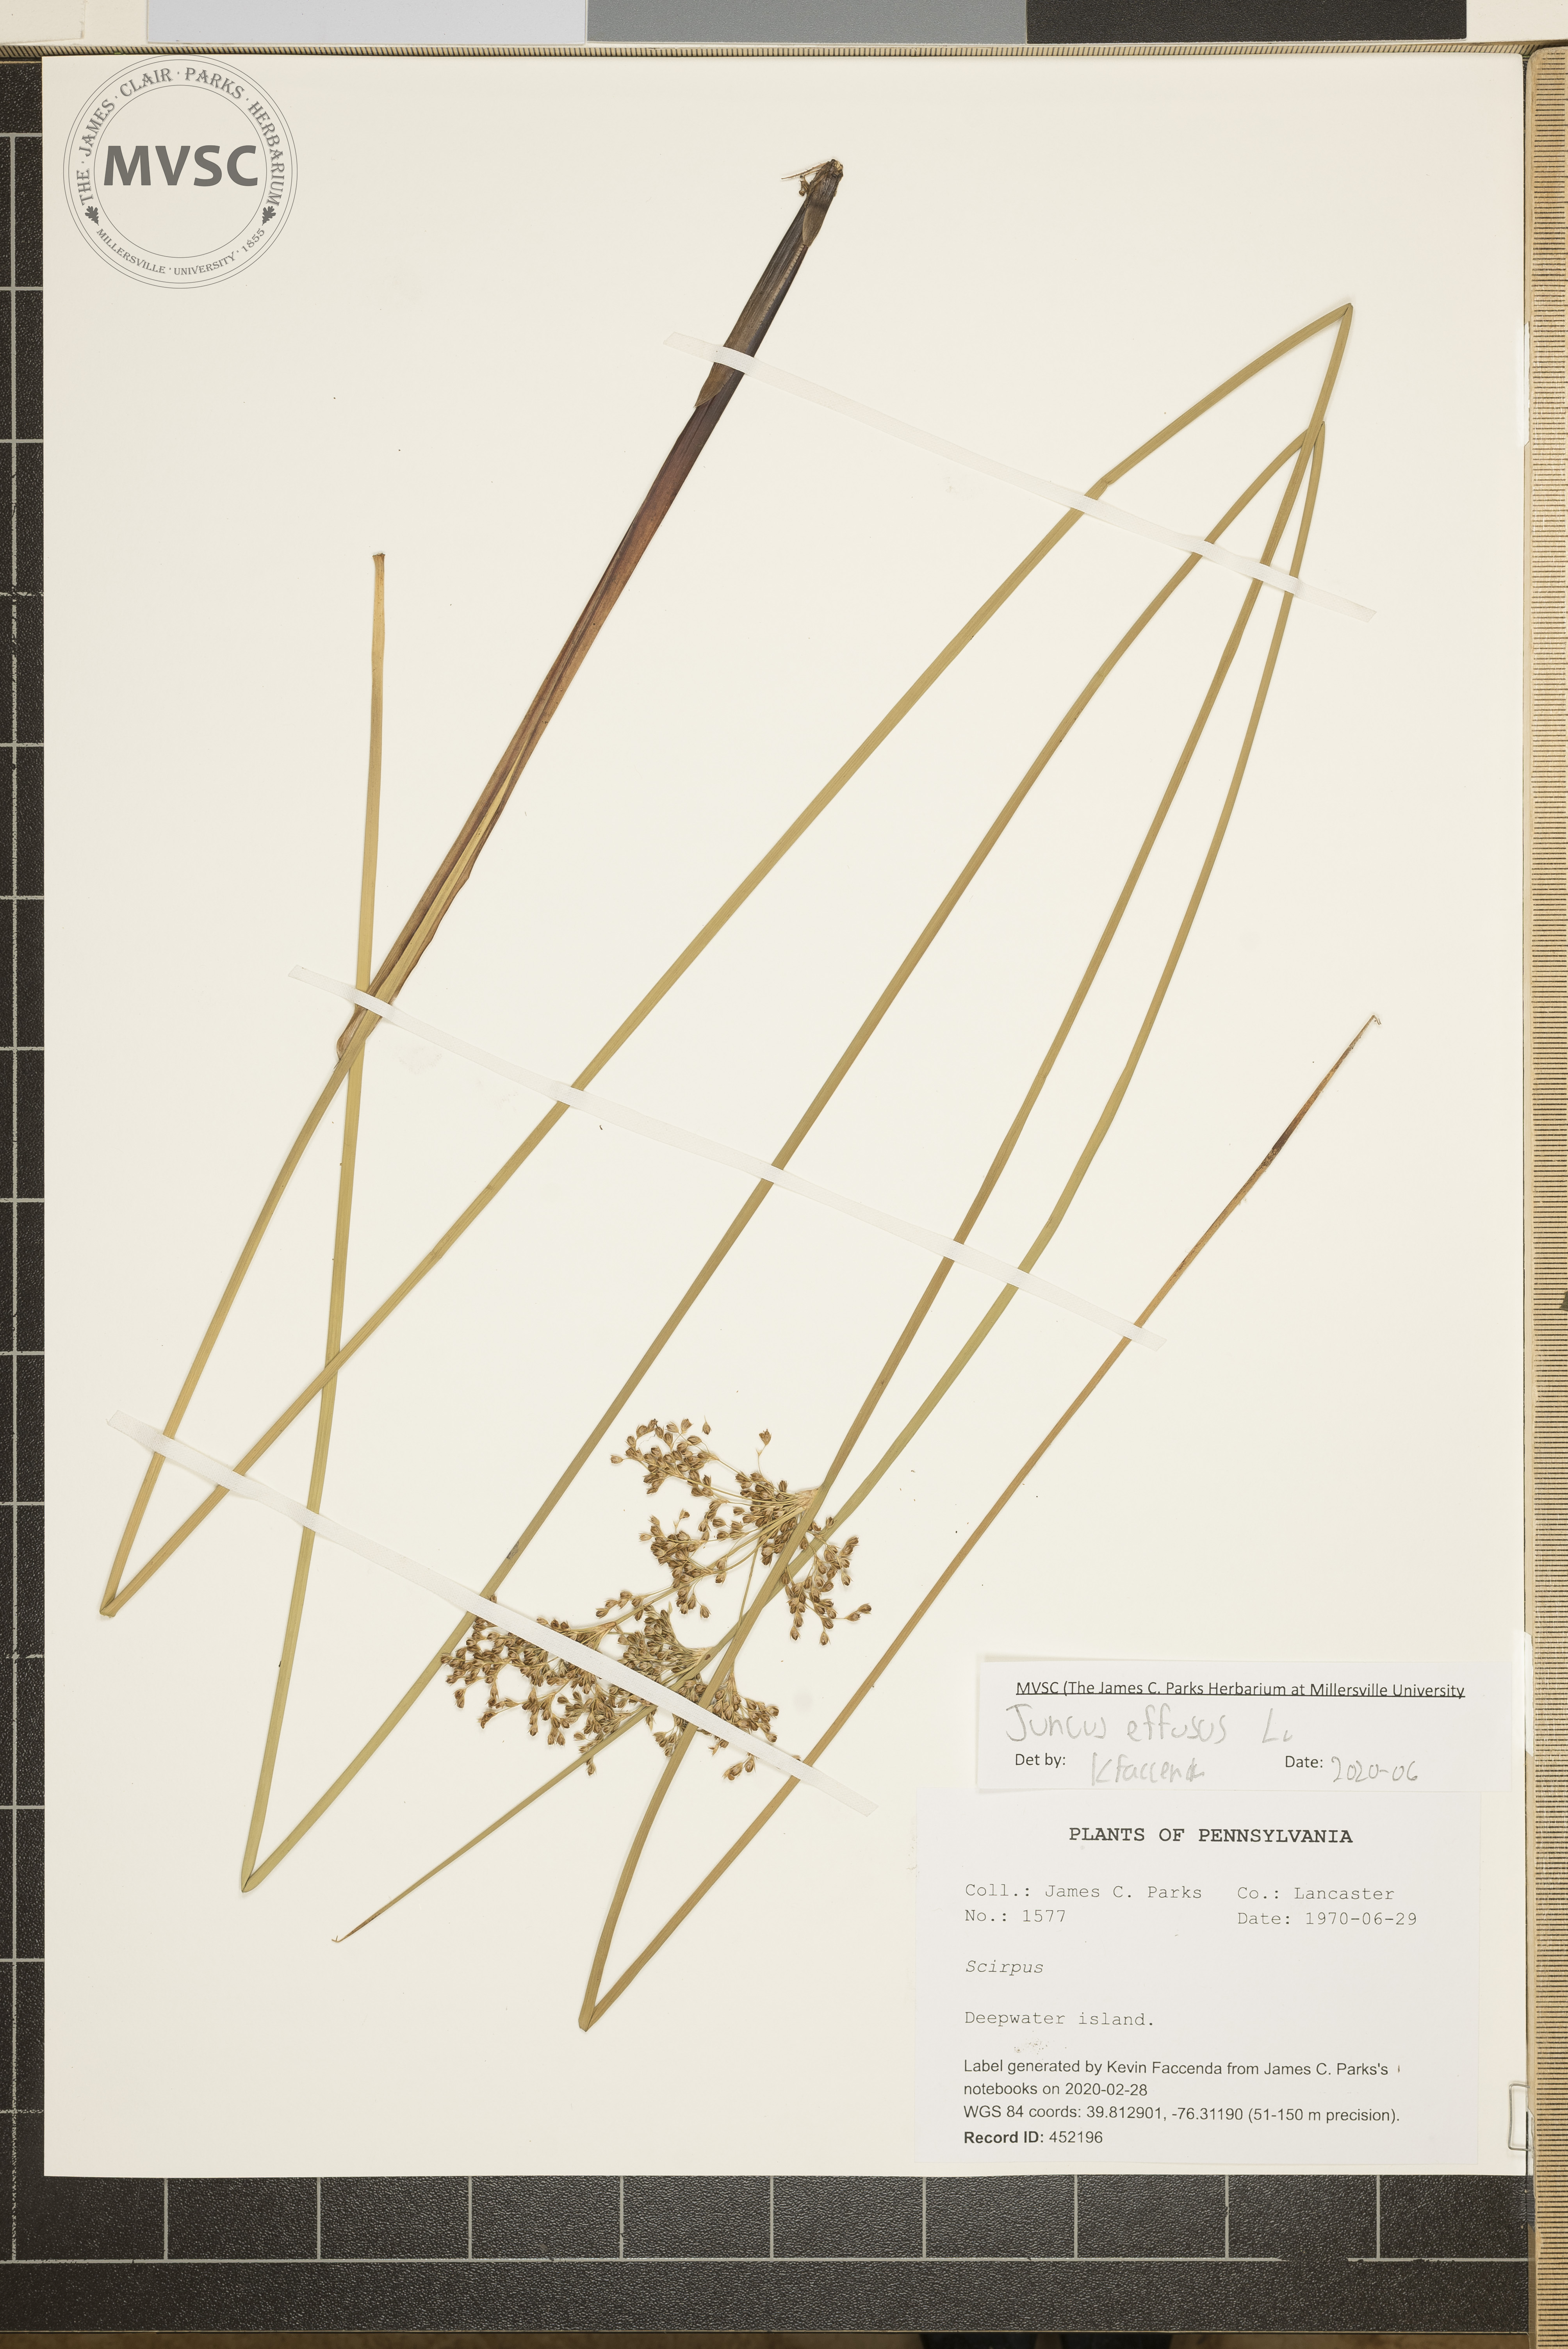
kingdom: Plantae
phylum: Tracheophyta
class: Liliopsida
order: Poales
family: Juncaceae
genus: Juncus
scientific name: Juncus effusus
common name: Soft rush
